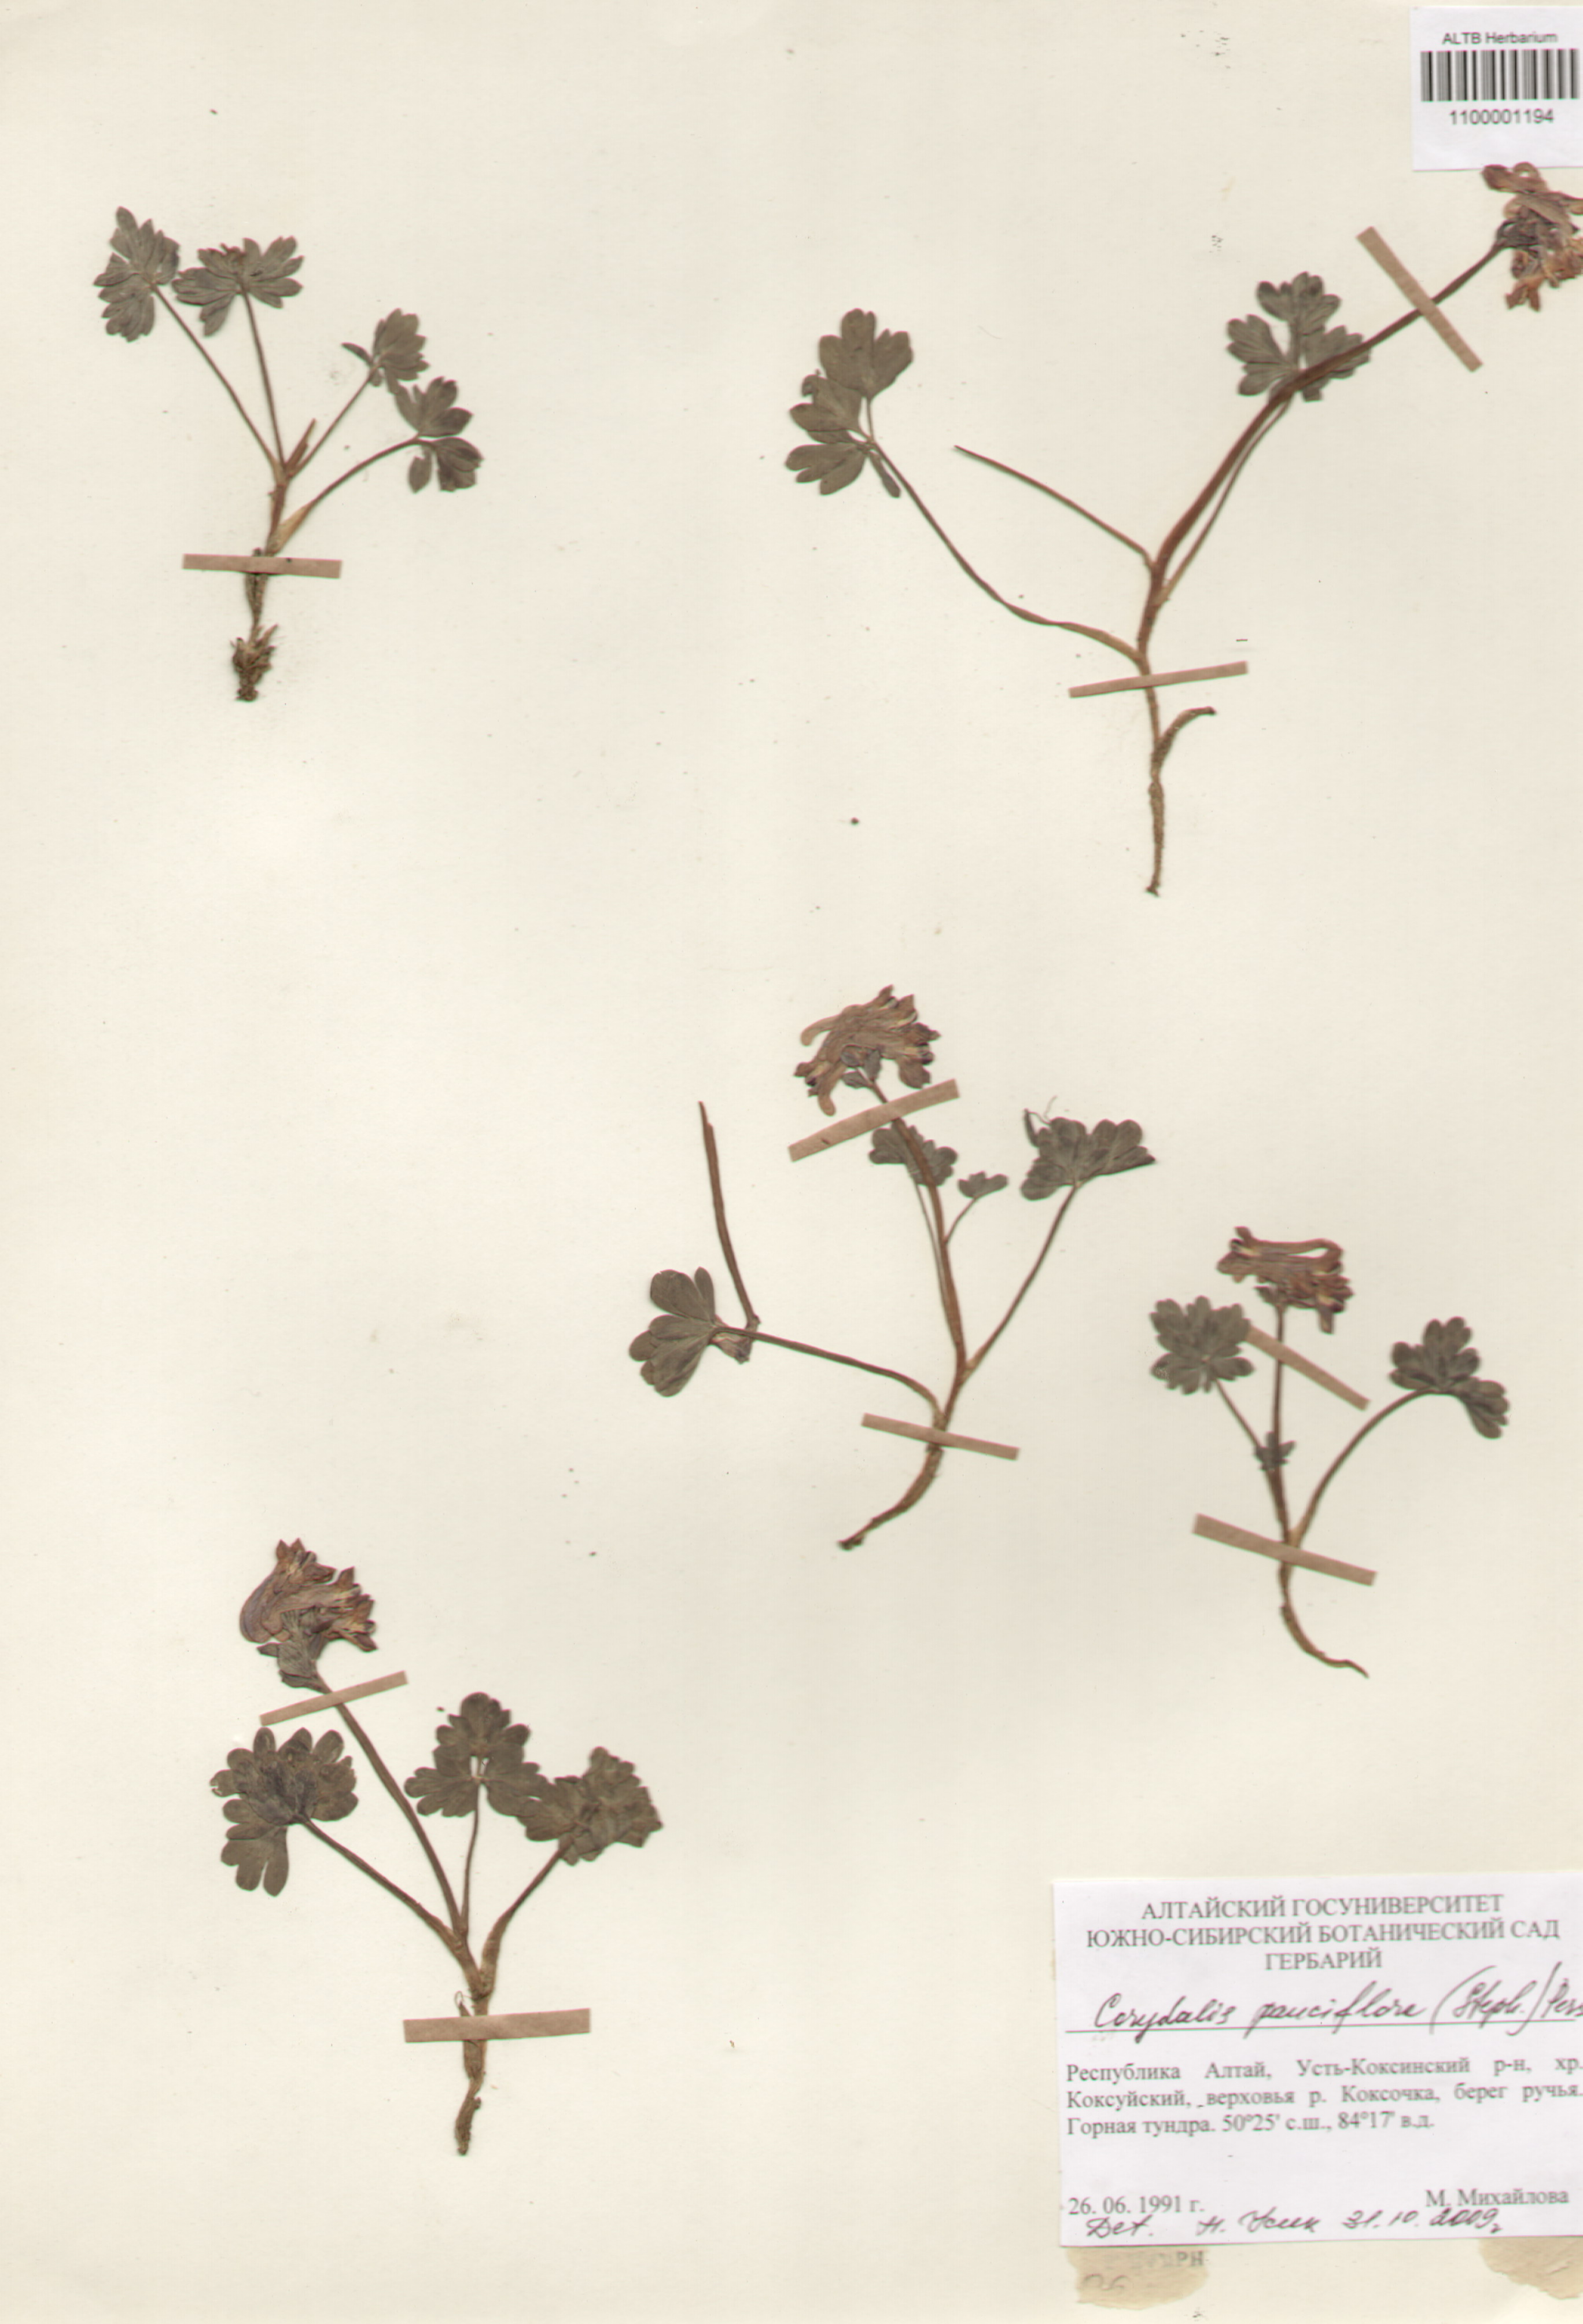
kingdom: Plantae
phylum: Tracheophyta
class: Magnoliopsida
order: Ranunculales
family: Papaveraceae
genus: Corydalis
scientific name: Corydalis pauciflora
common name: Blue corydalis
